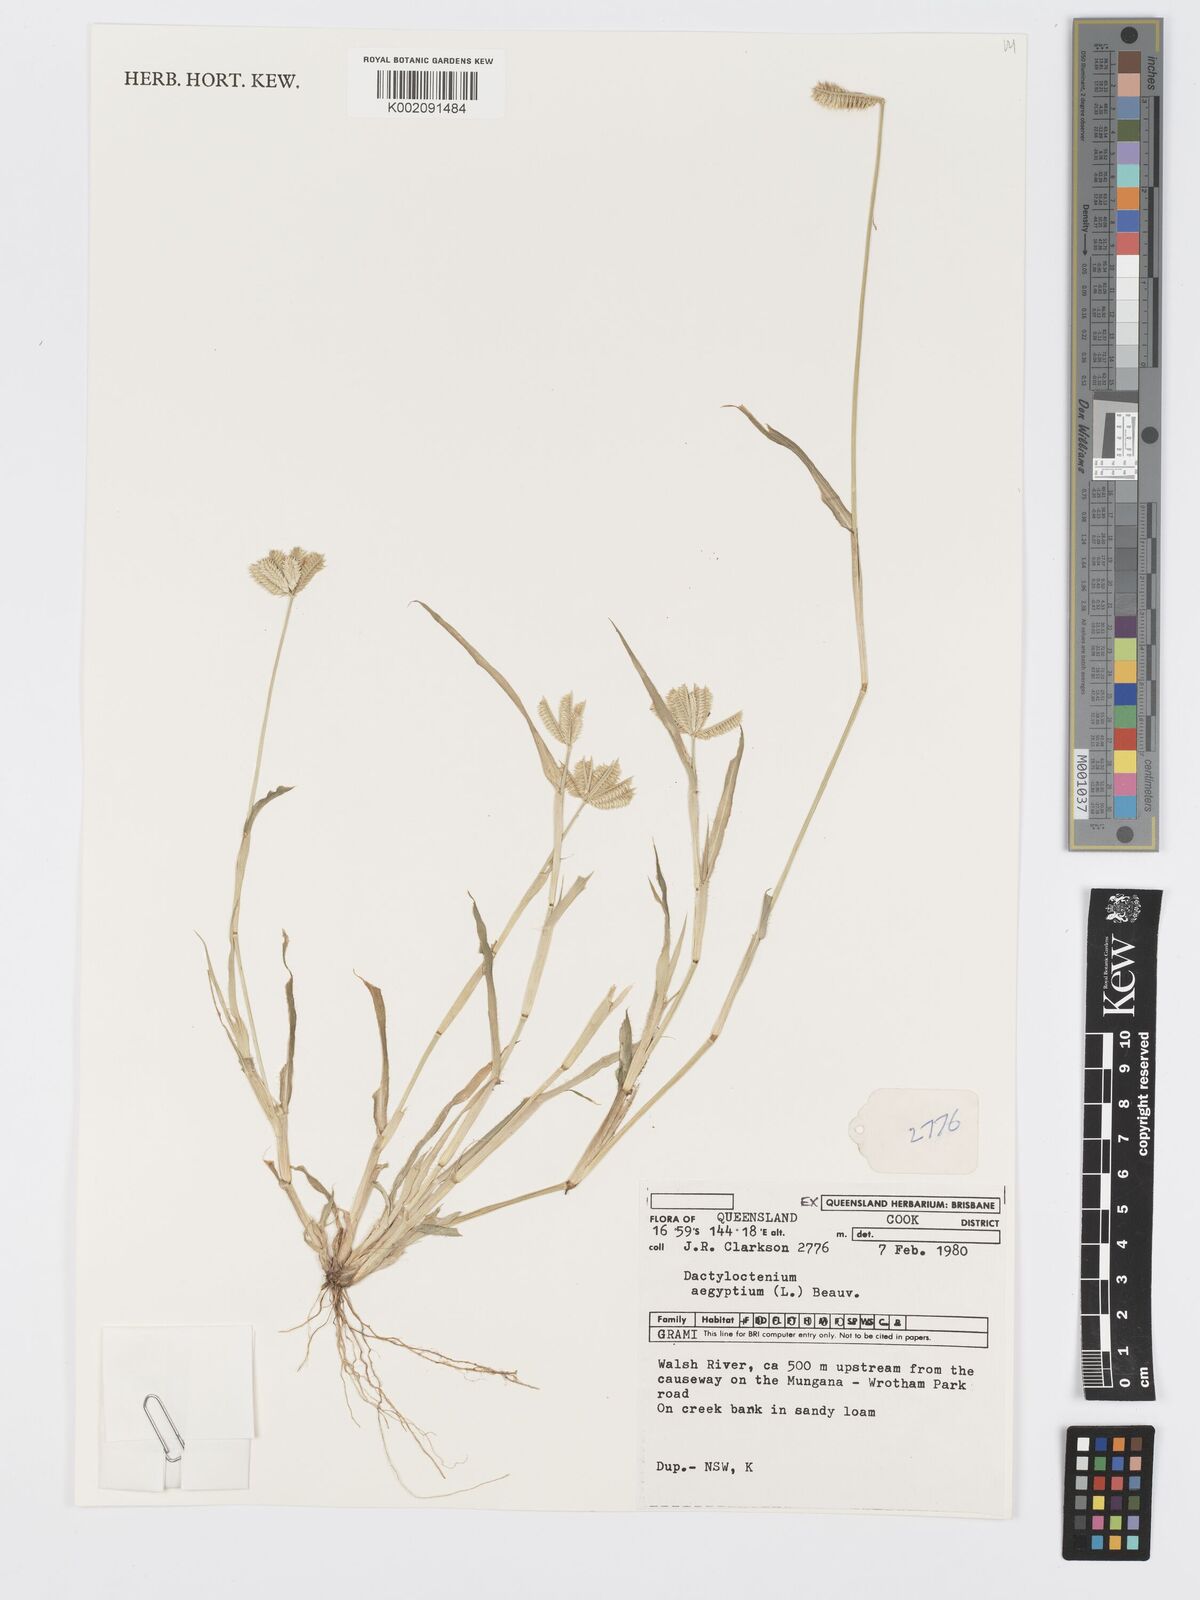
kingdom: Plantae
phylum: Tracheophyta
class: Liliopsida
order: Poales
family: Poaceae
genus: Dactyloctenium
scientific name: Dactyloctenium aegyptium
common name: Egyptian grass
